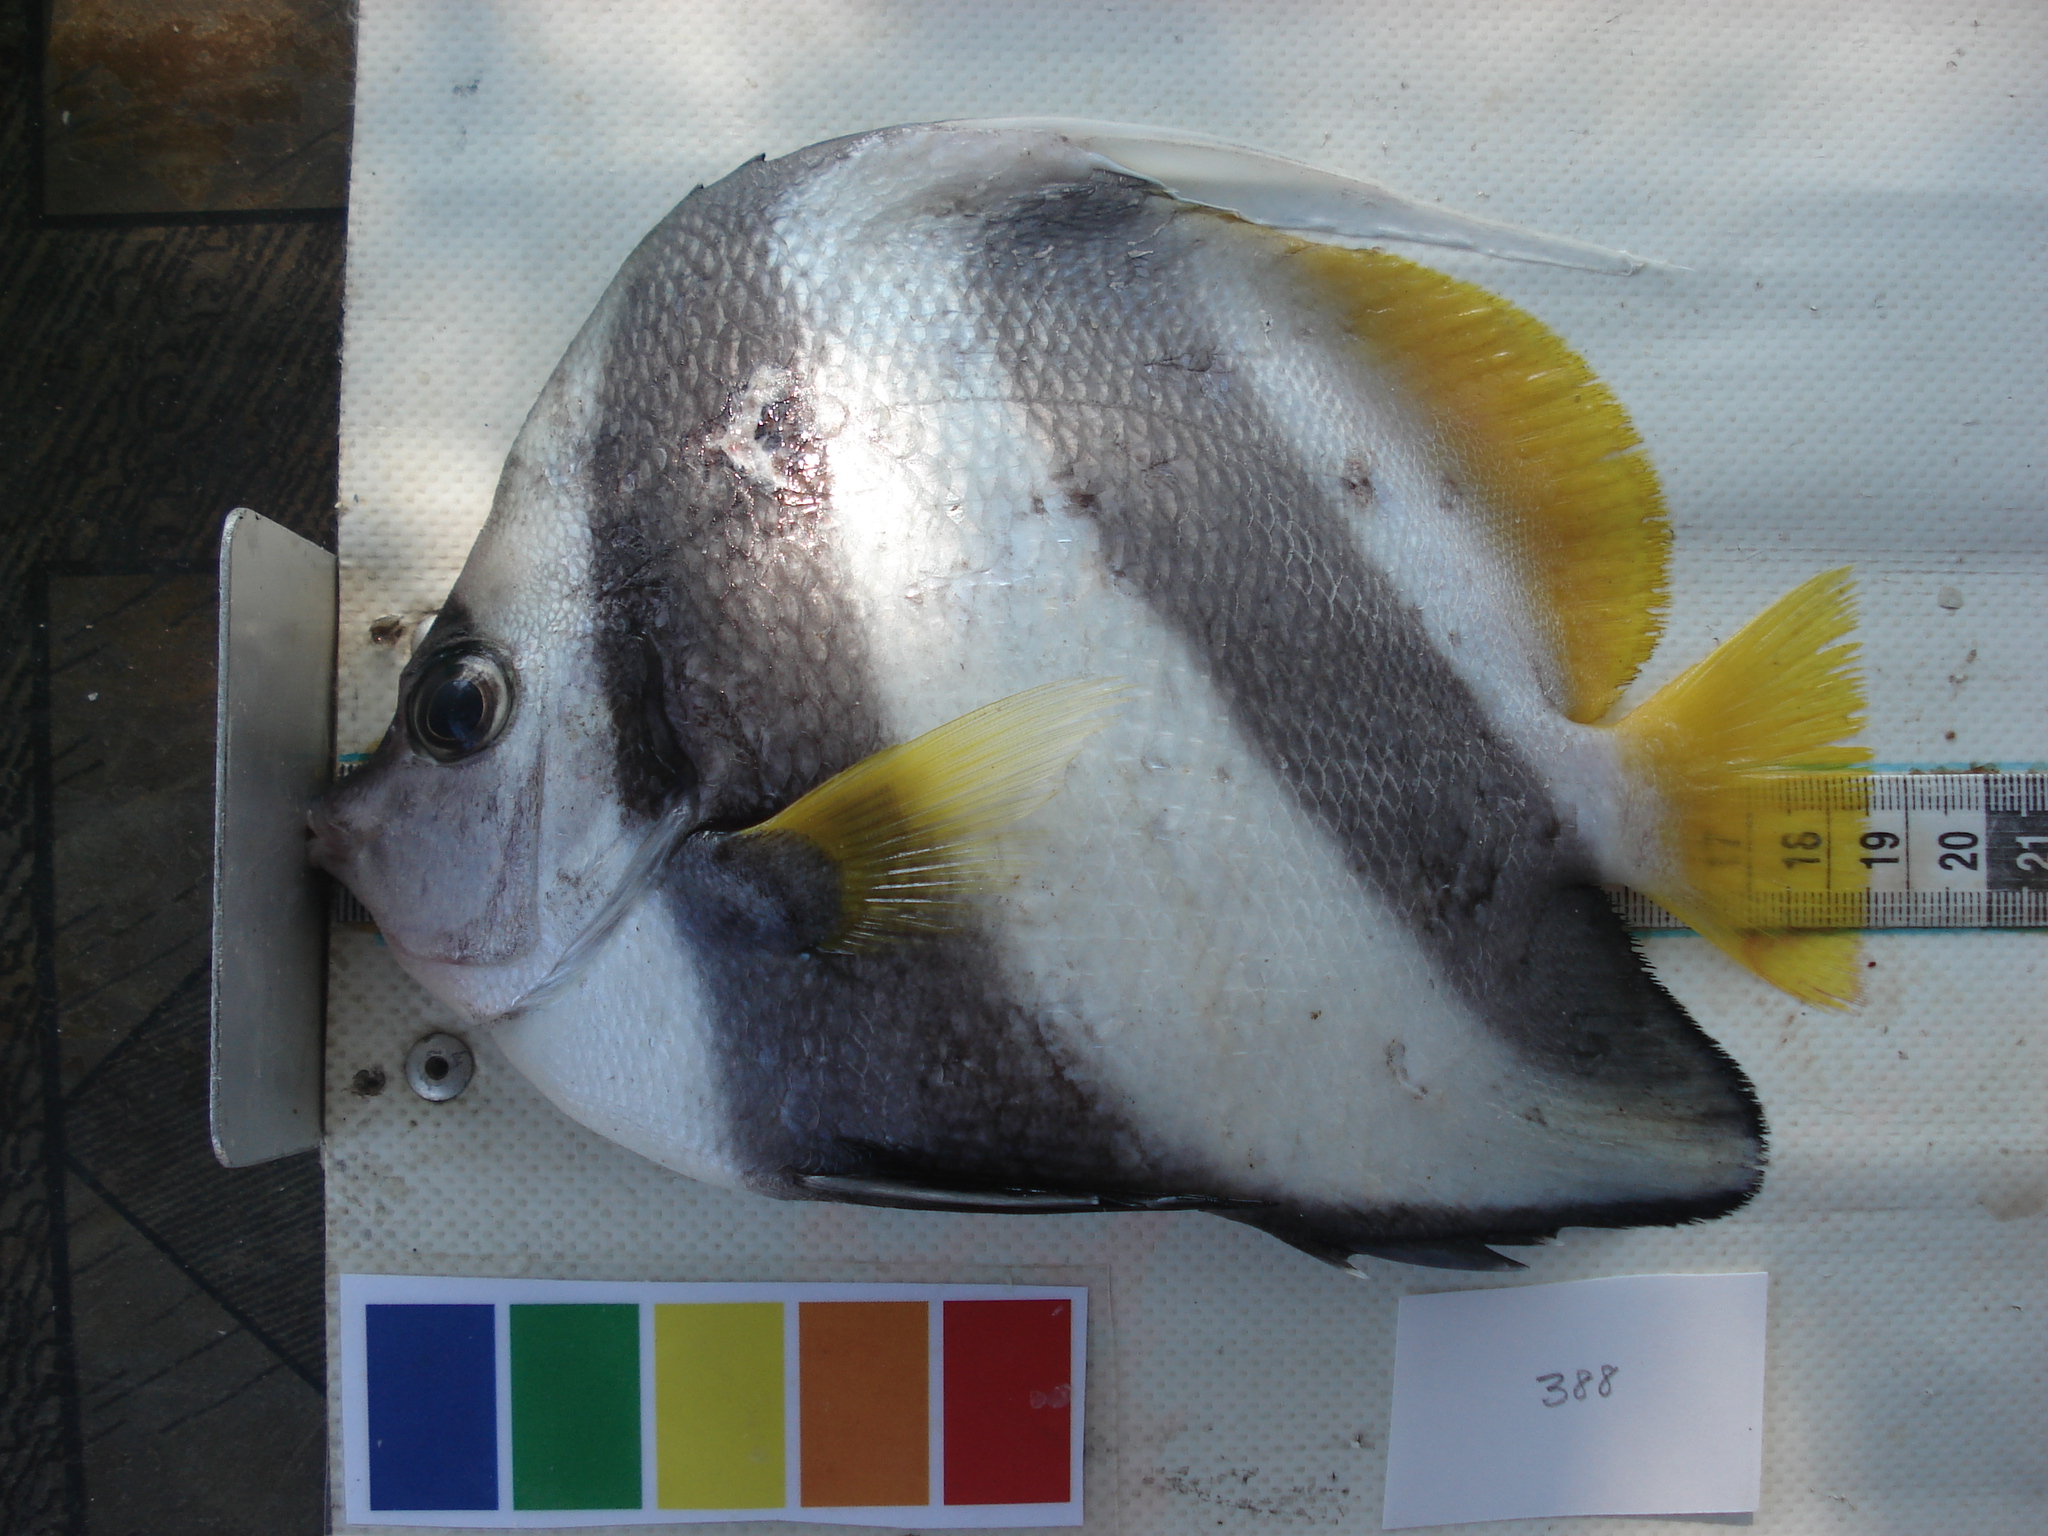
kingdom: Animalia
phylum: Chordata
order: Perciformes
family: Chaetodontidae
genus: Heniochus
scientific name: Heniochus diphreutes
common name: Pennantfish
